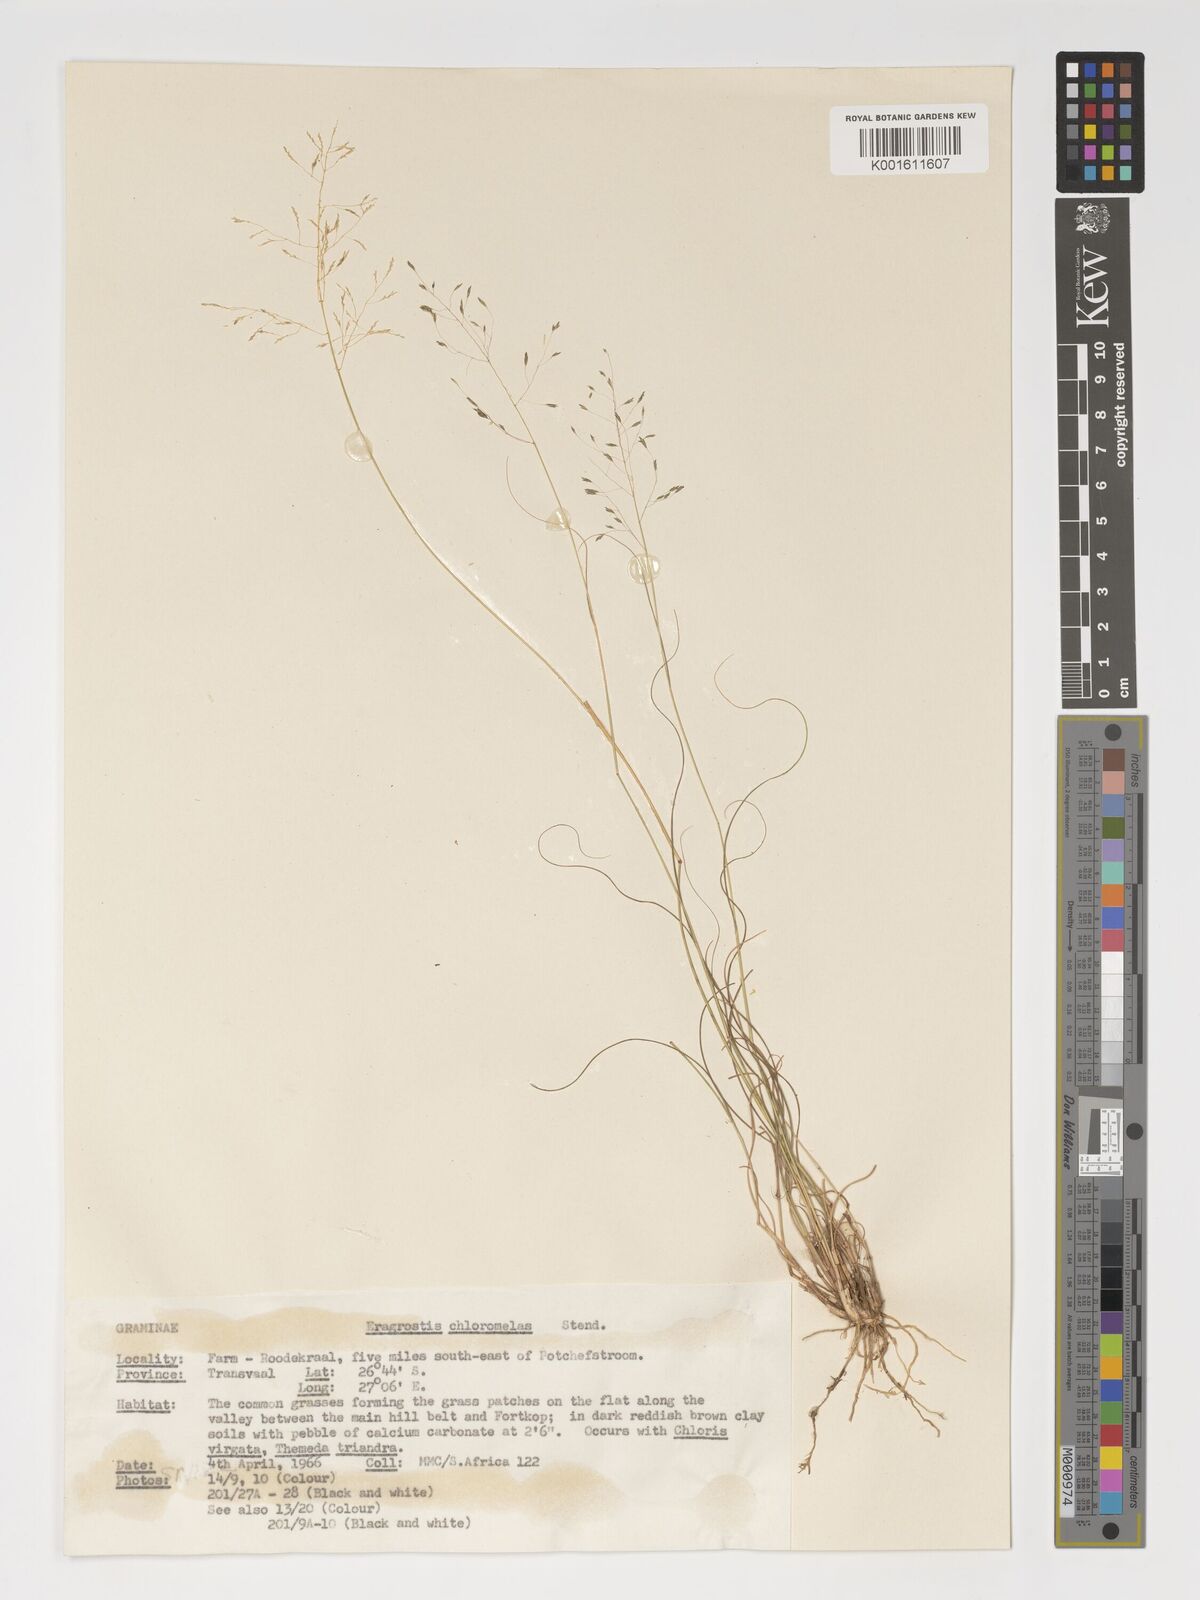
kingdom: Plantae
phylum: Tracheophyta
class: Liliopsida
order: Poales
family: Poaceae
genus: Eragrostis
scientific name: Eragrostis curvula
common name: African love-grass
